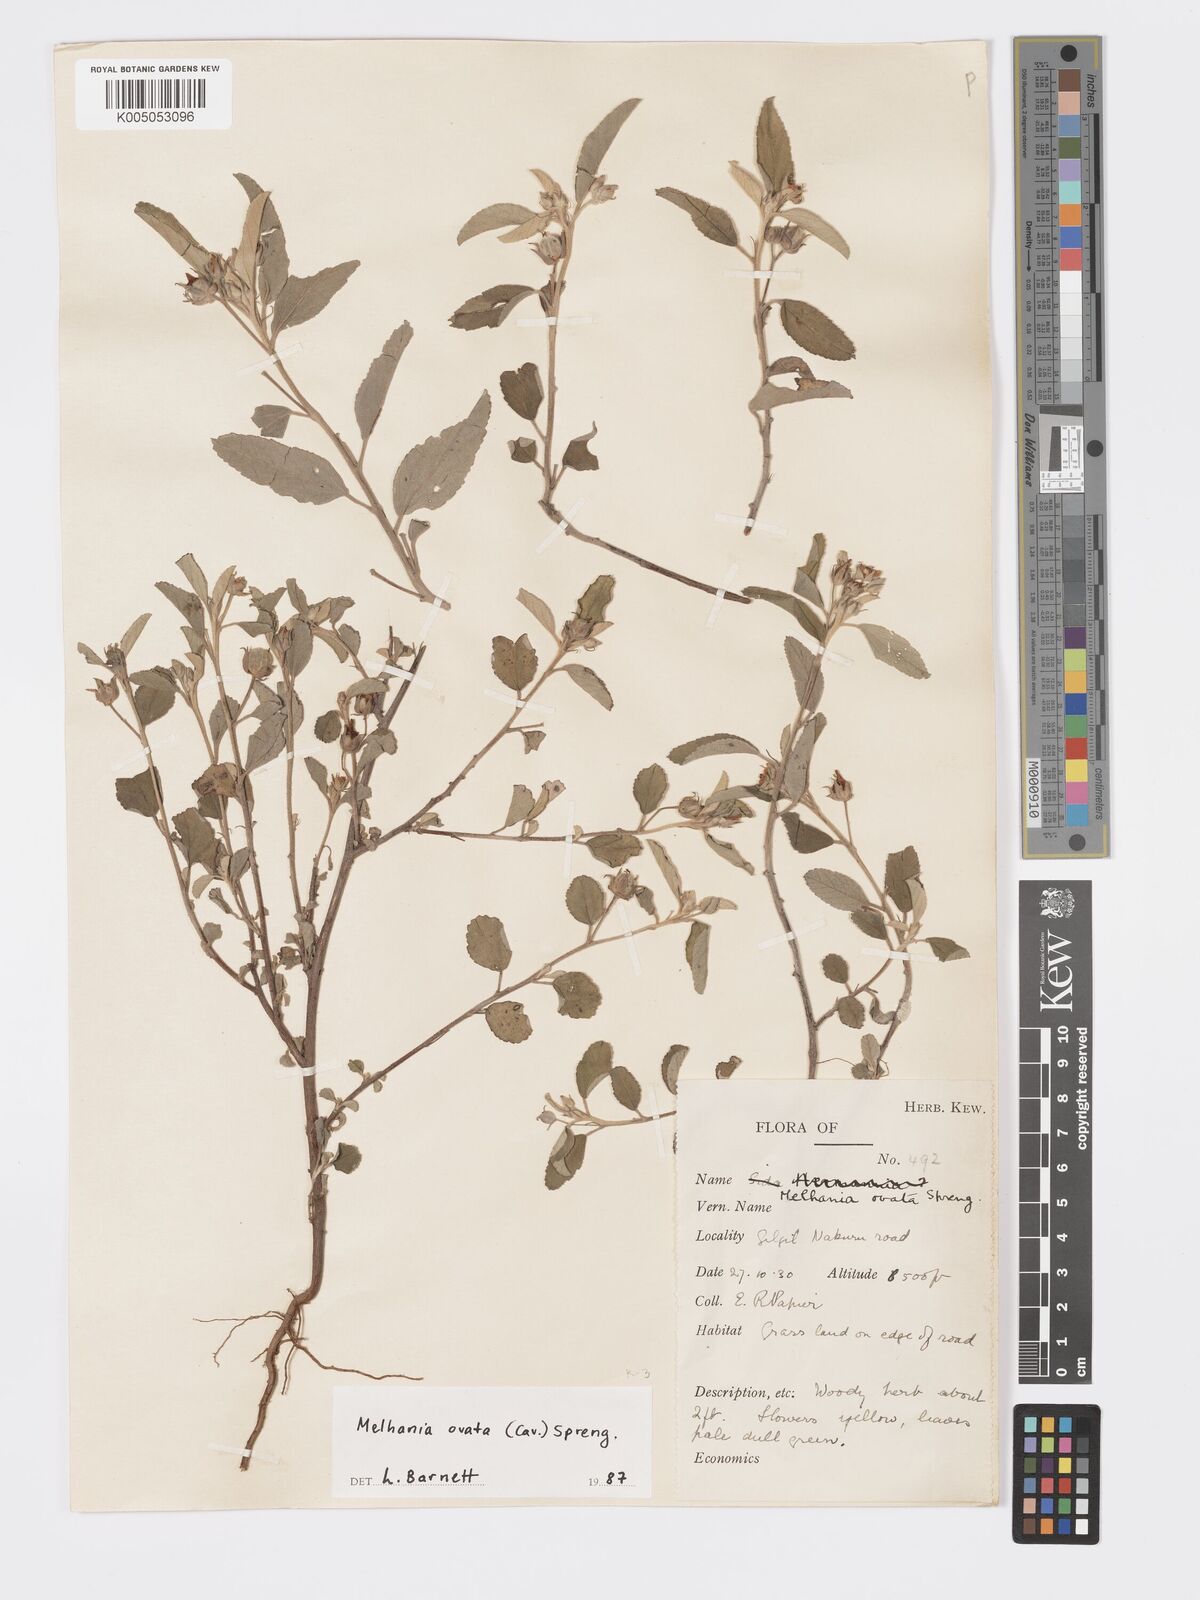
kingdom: Plantae
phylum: Tracheophyta
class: Magnoliopsida
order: Malvales
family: Malvaceae
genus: Melhania
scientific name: Melhania ovata
